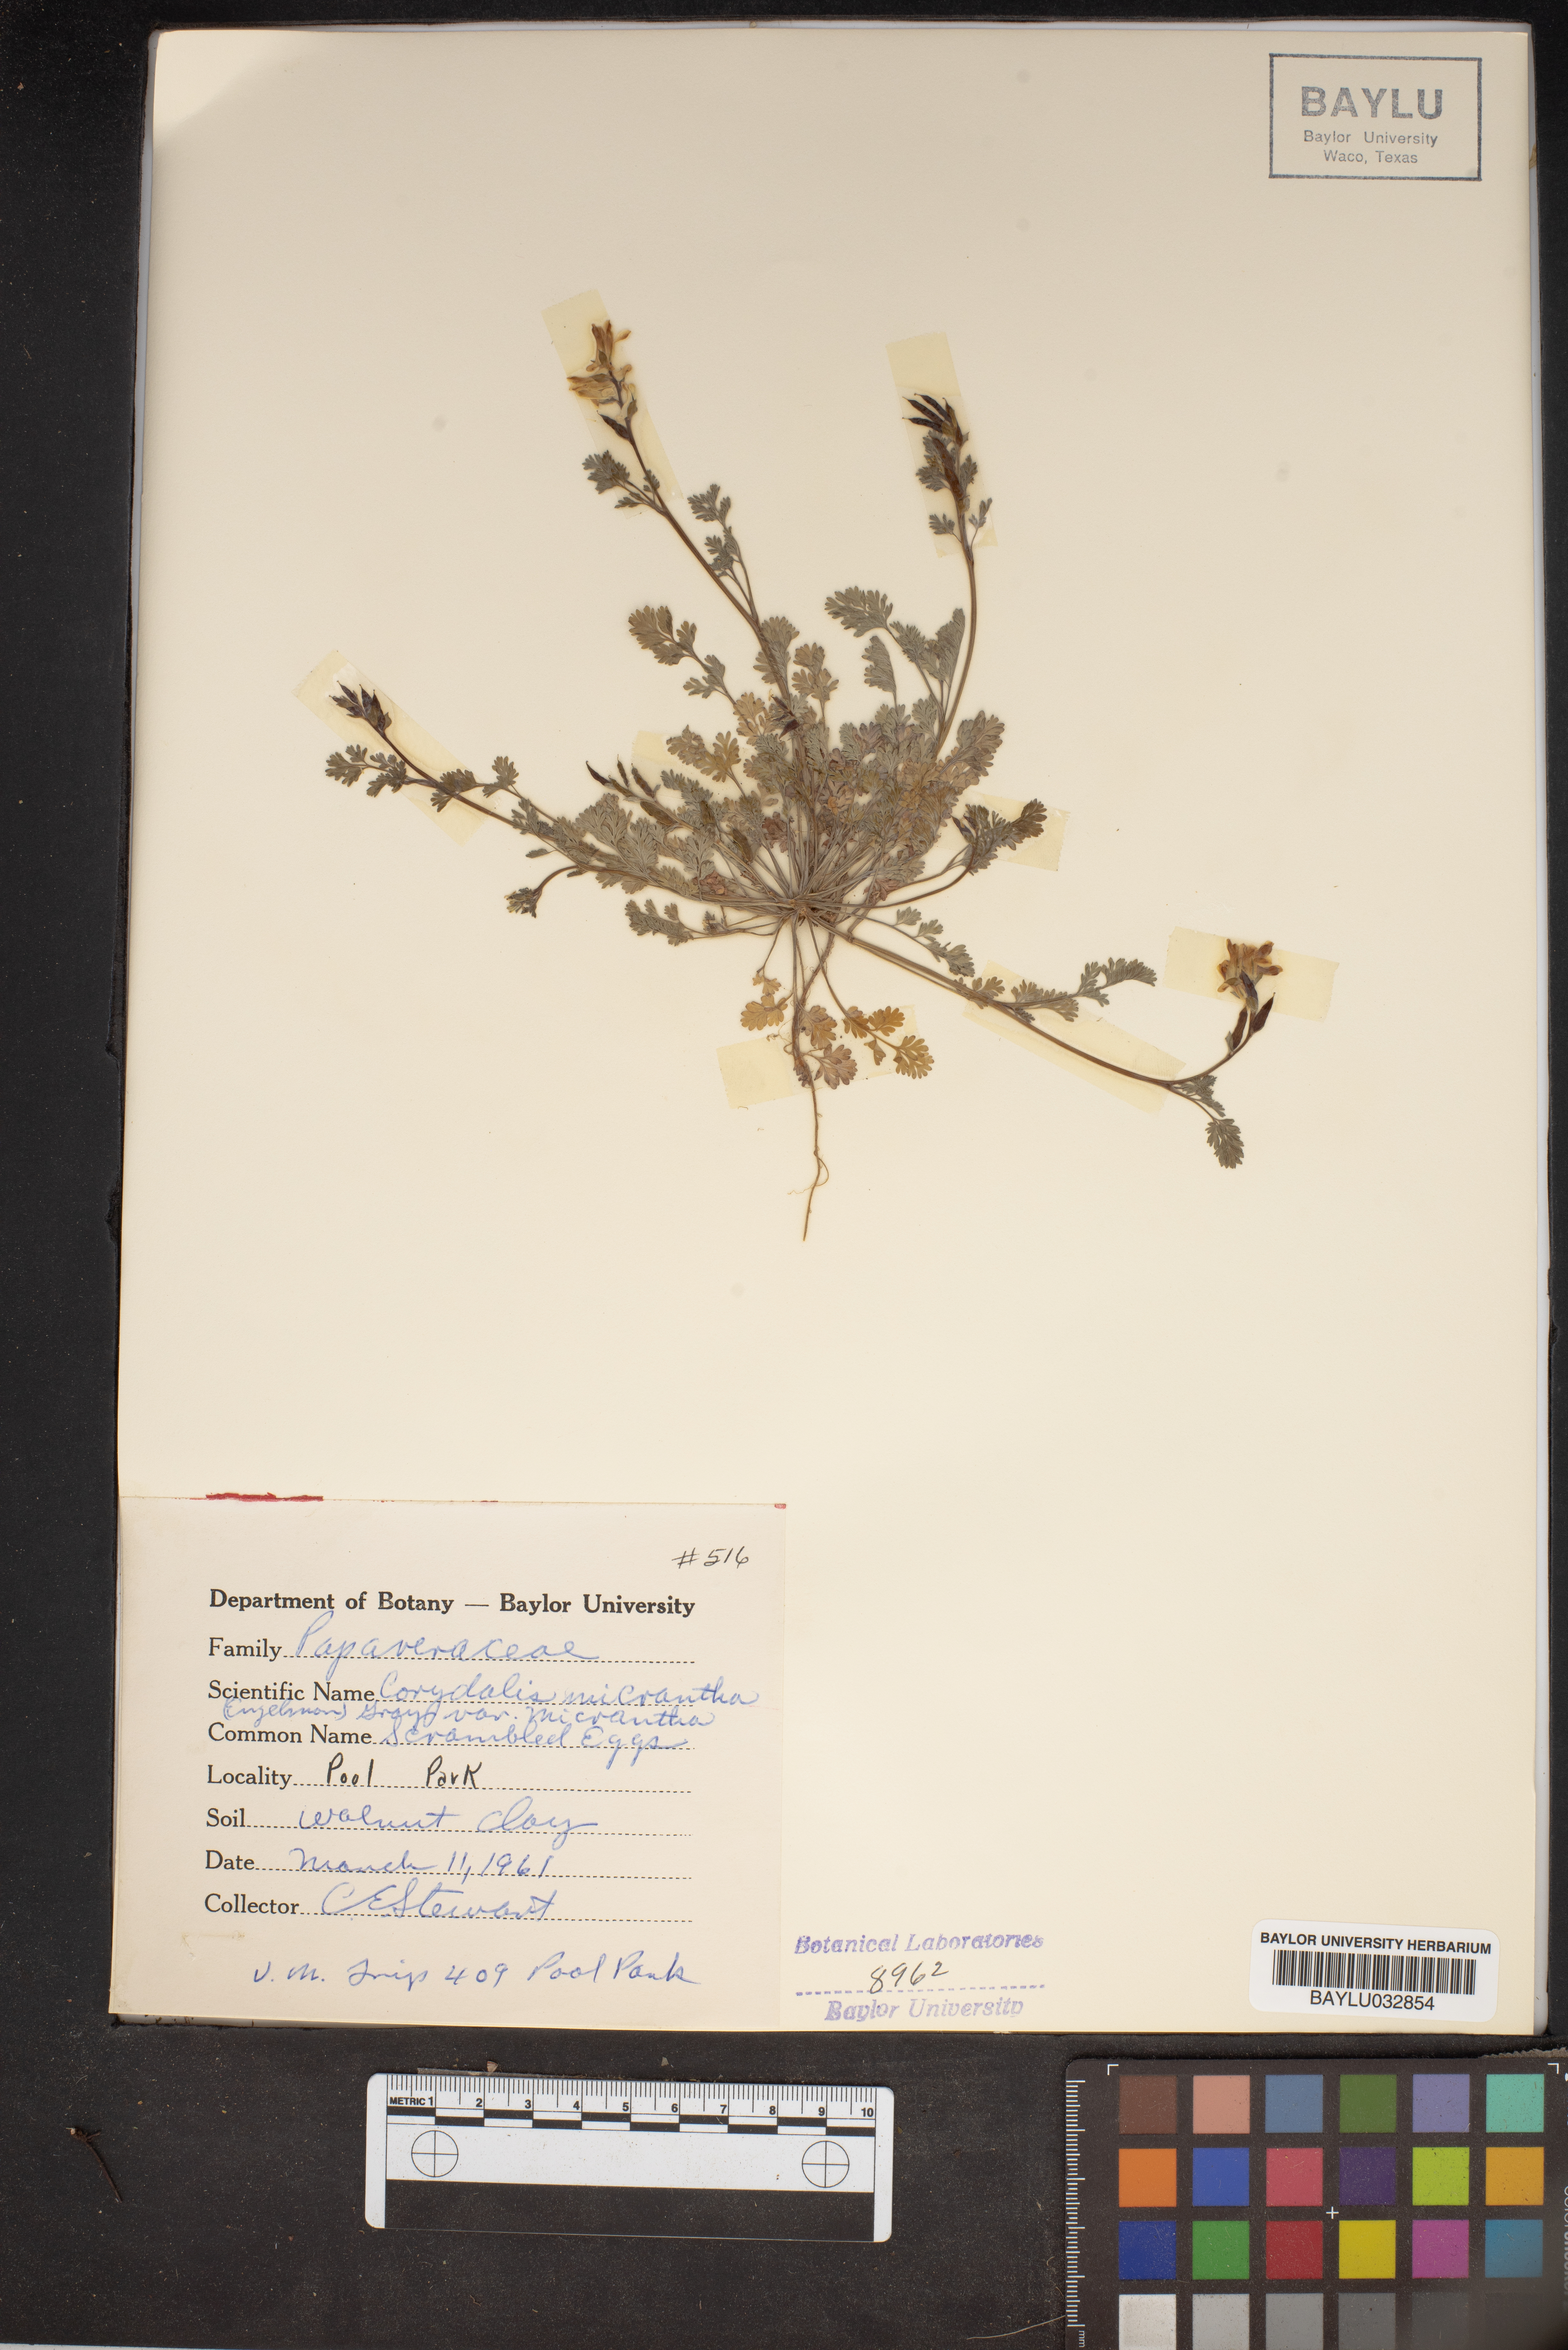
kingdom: Plantae
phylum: Tracheophyta
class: Magnoliopsida
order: Ranunculales
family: Papaveraceae
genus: Corydalis
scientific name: Corydalis micrantha
